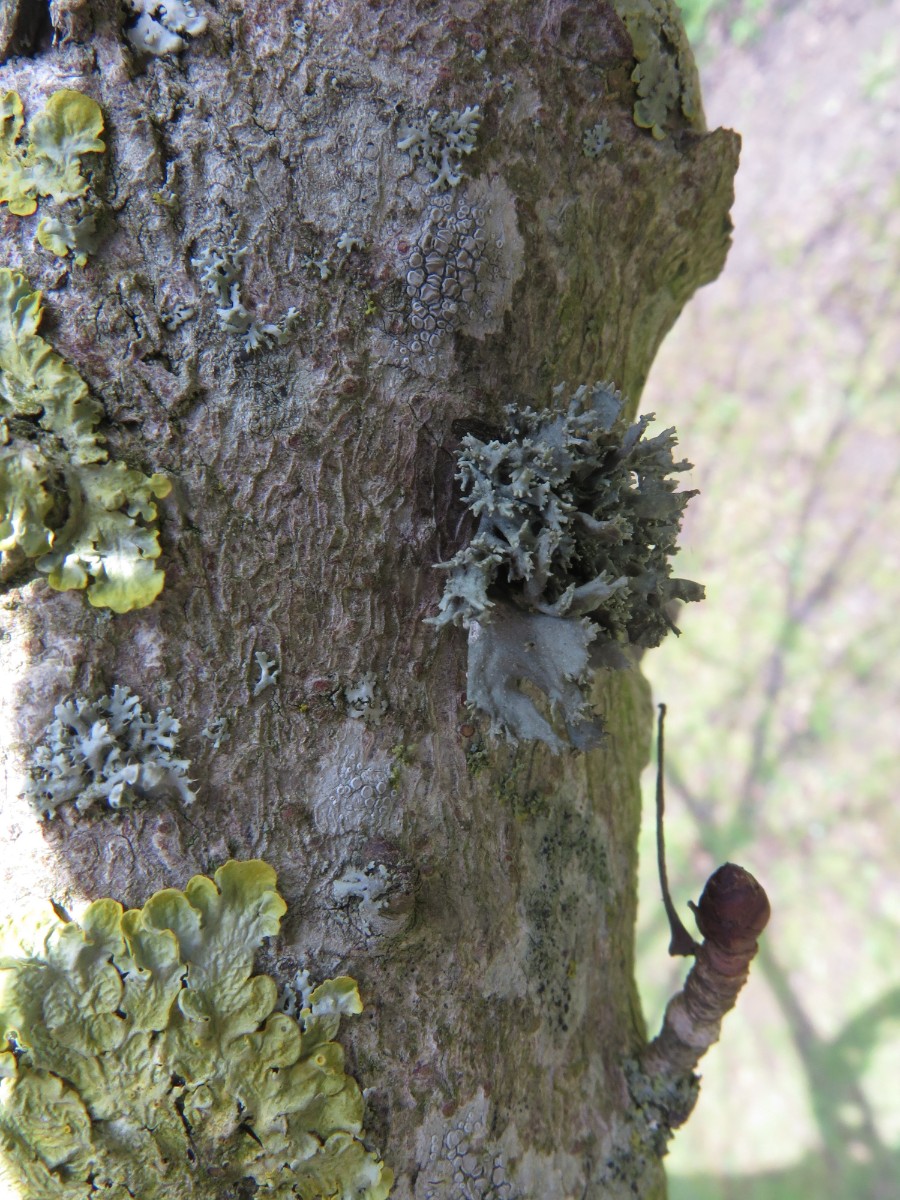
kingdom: Fungi
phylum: Ascomycota
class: Lecanoromycetes
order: Lecanorales
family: Parmeliaceae
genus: Evernia
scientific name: Evernia prunastri
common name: almindelig slåenlav
